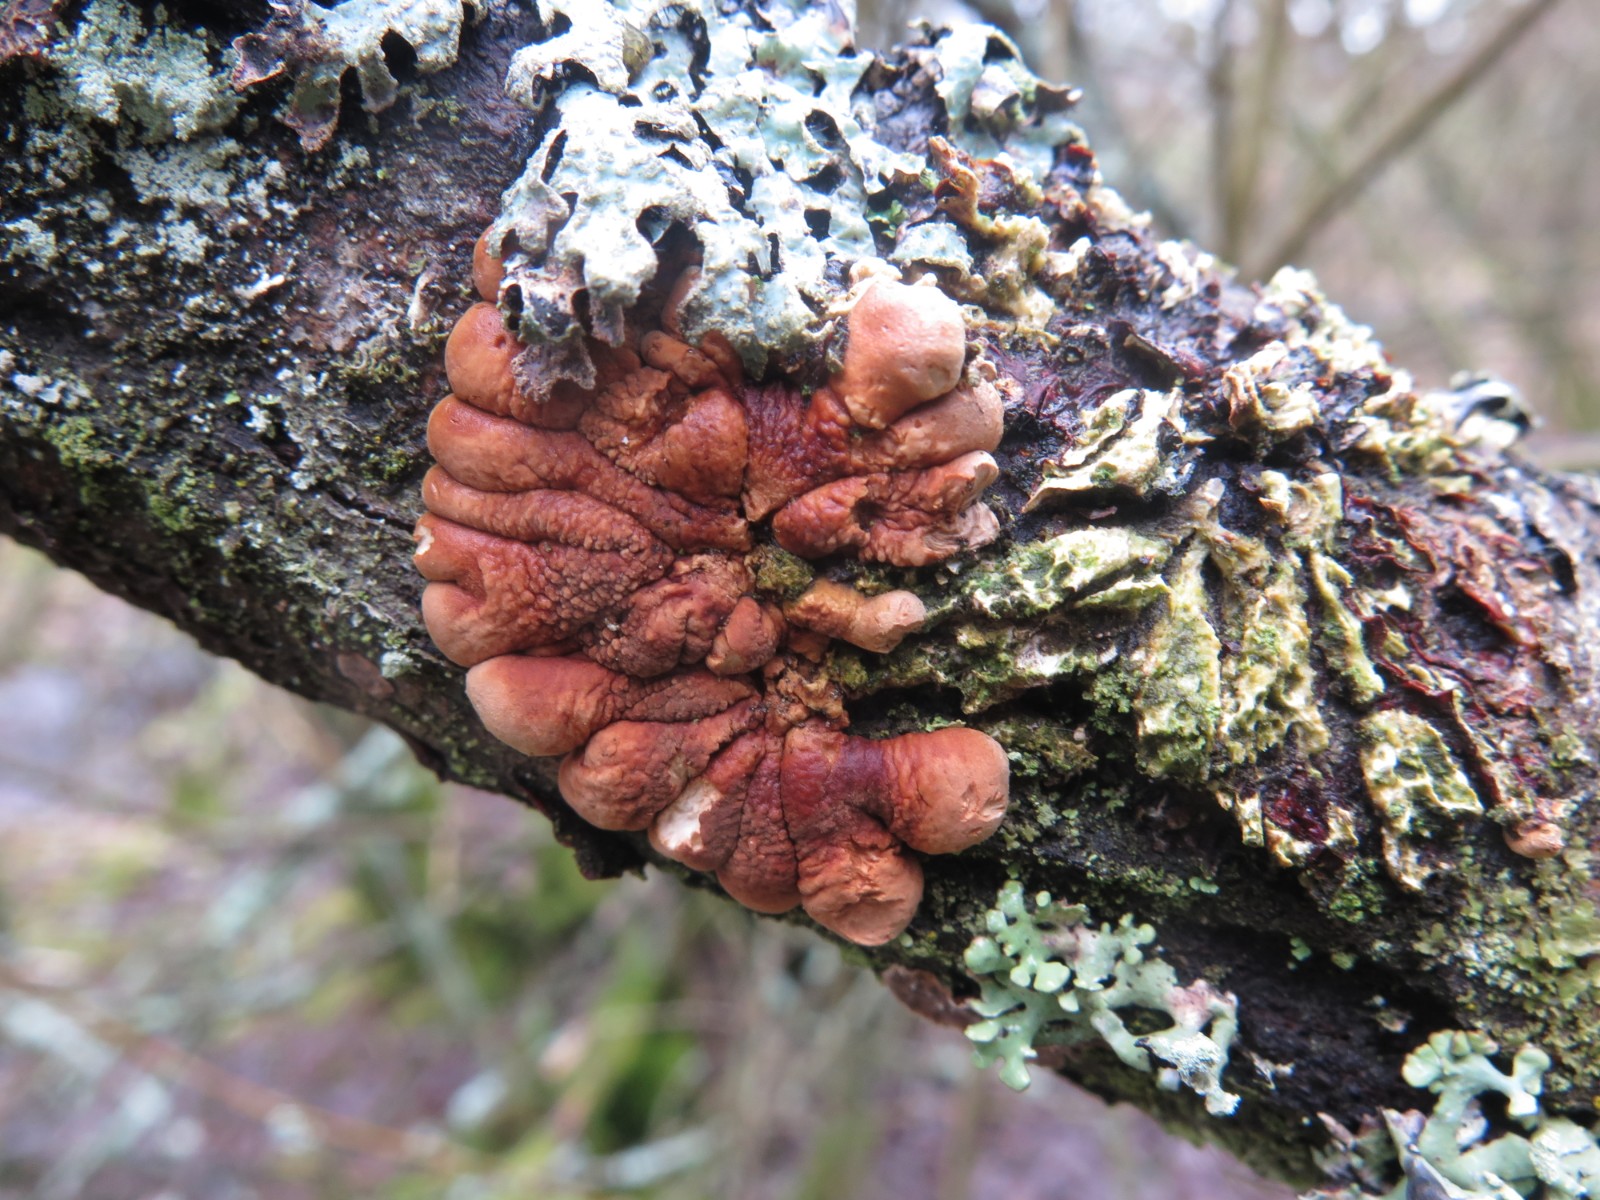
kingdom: Fungi
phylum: Ascomycota
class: Sordariomycetes
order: Hypocreales
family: Hypocreaceae
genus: Hypocreopsis
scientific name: Hypocreopsis lichenoides
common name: pilfinger
